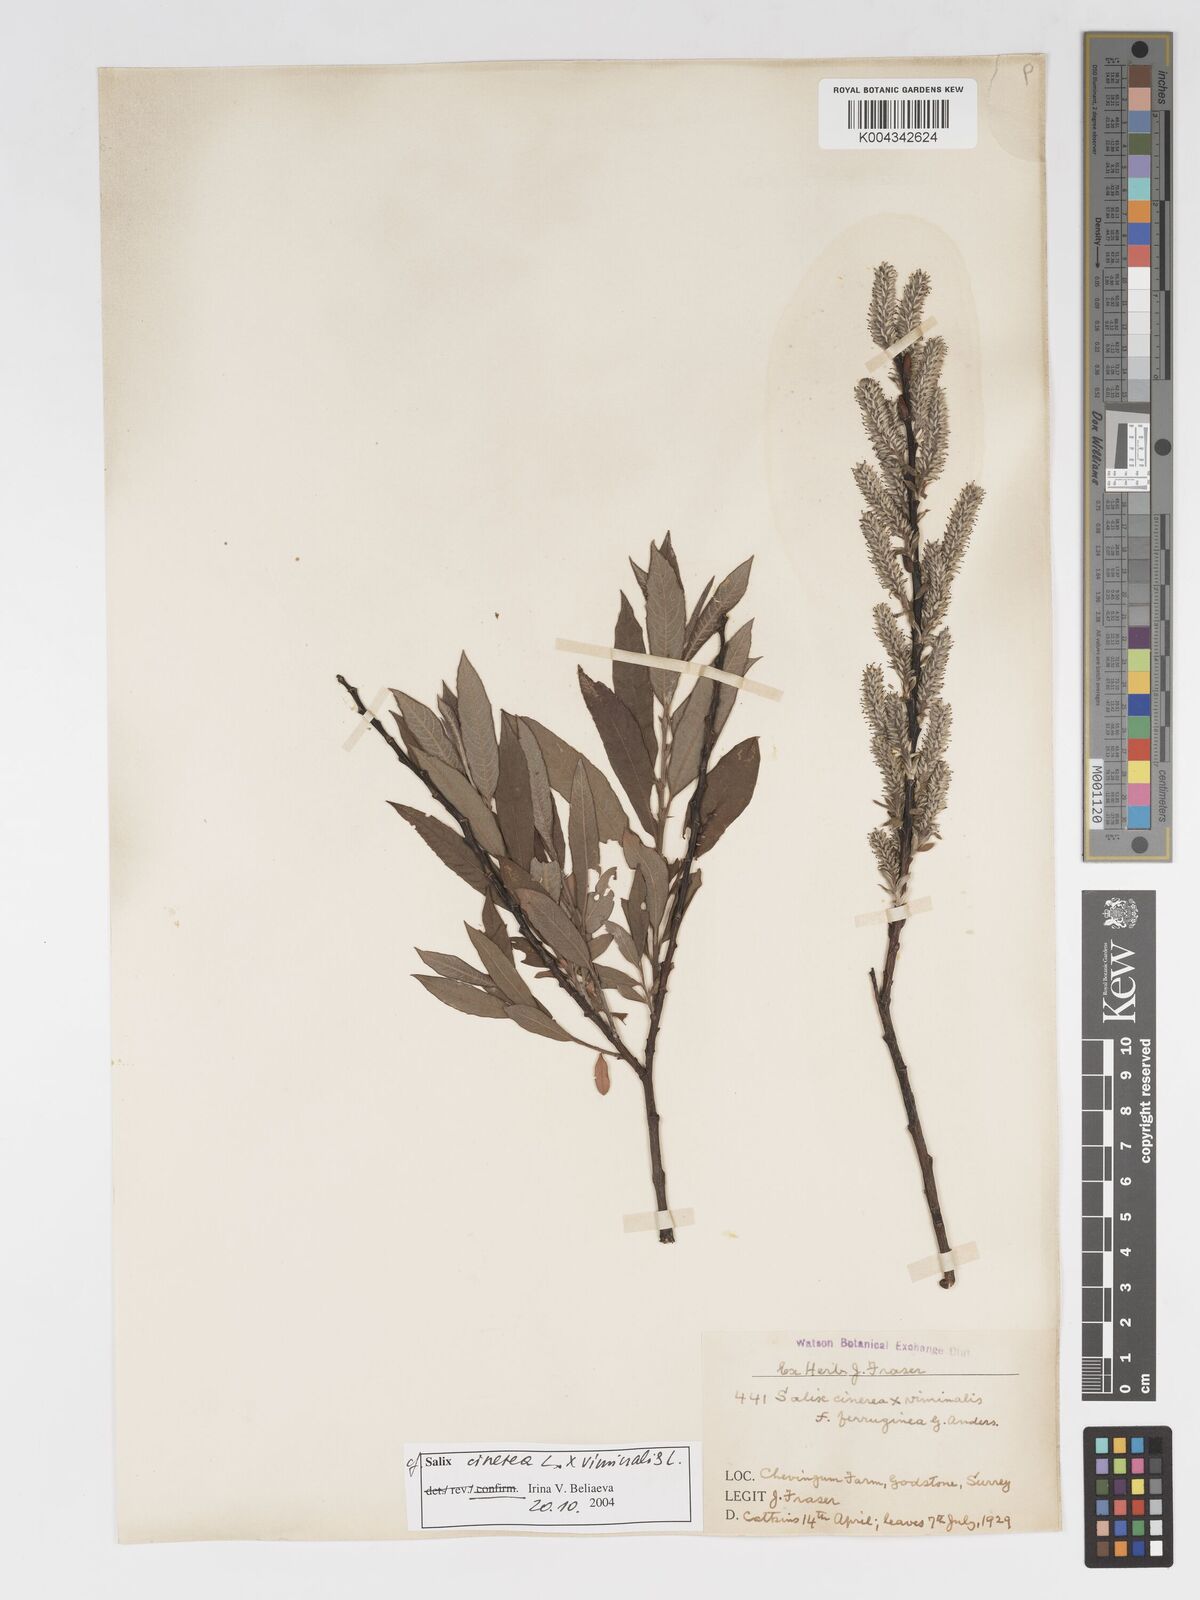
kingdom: Plantae
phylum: Tracheophyta
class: Magnoliopsida
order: Malpighiales
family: Salicaceae
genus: Salix
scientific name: Salix cinerea
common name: Common sallow
